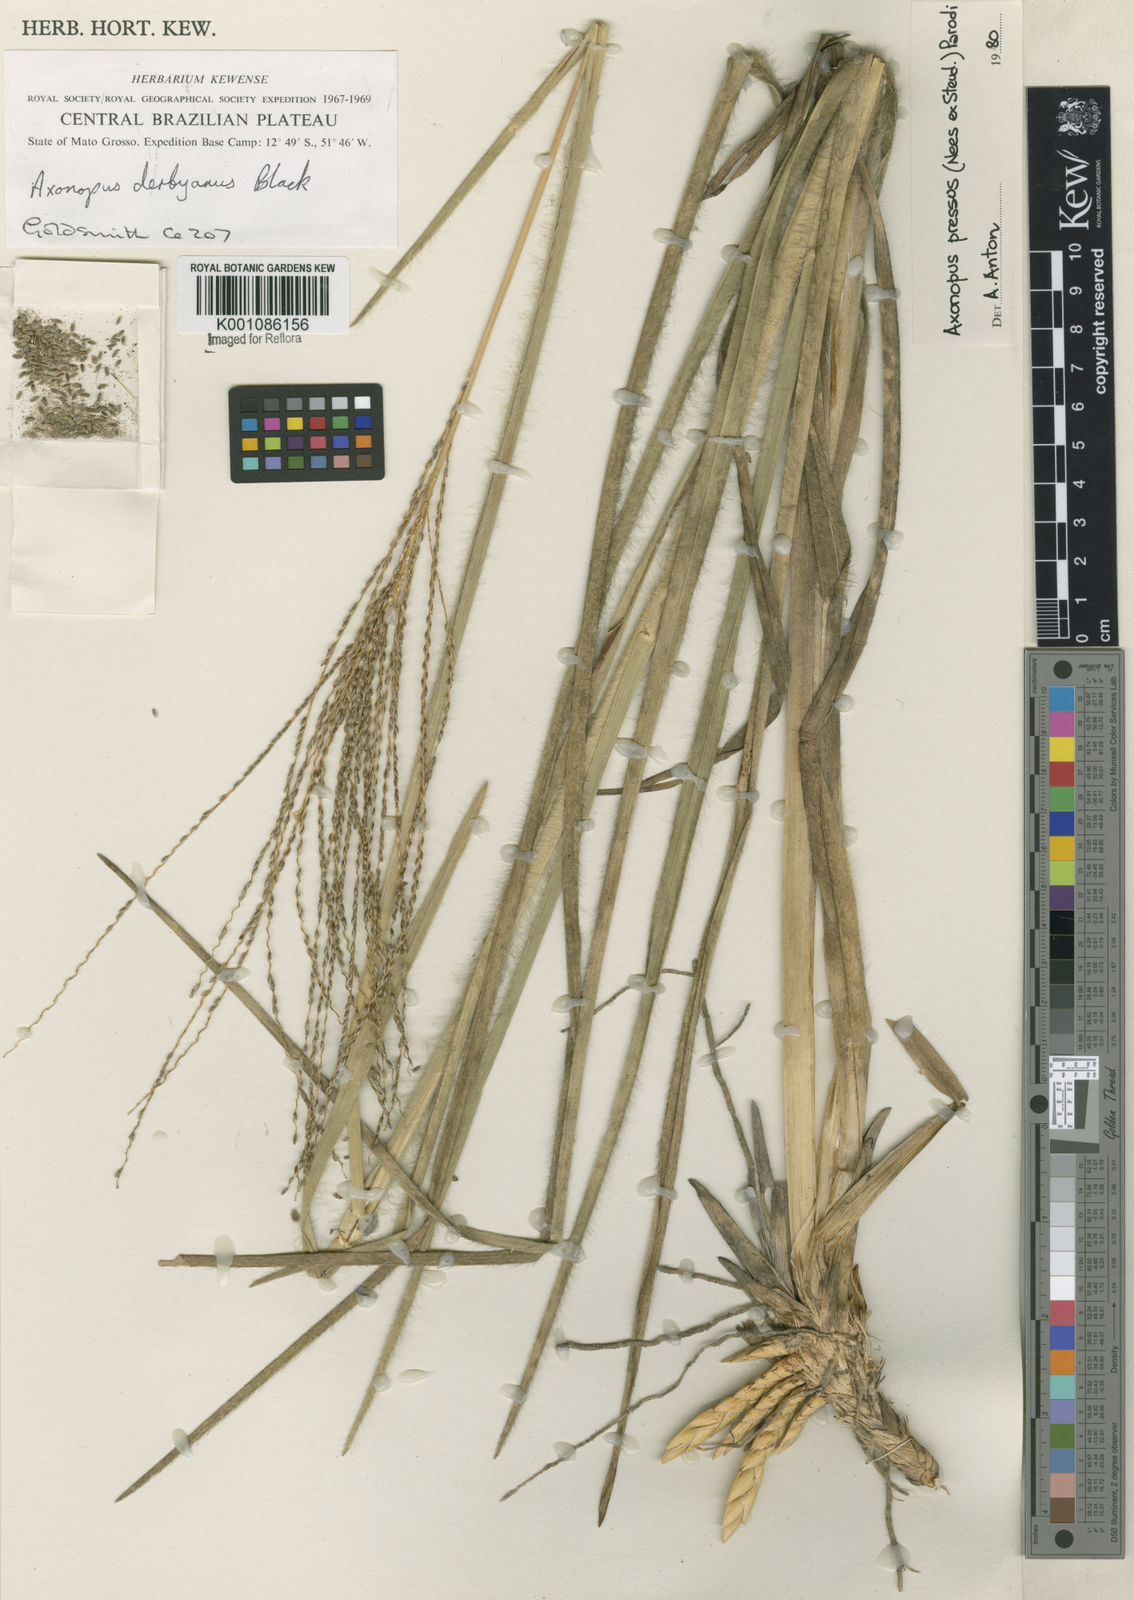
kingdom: Plantae
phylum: Tracheophyta
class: Liliopsida
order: Poales
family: Poaceae
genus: Axonopus
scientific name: Axonopus pressus
